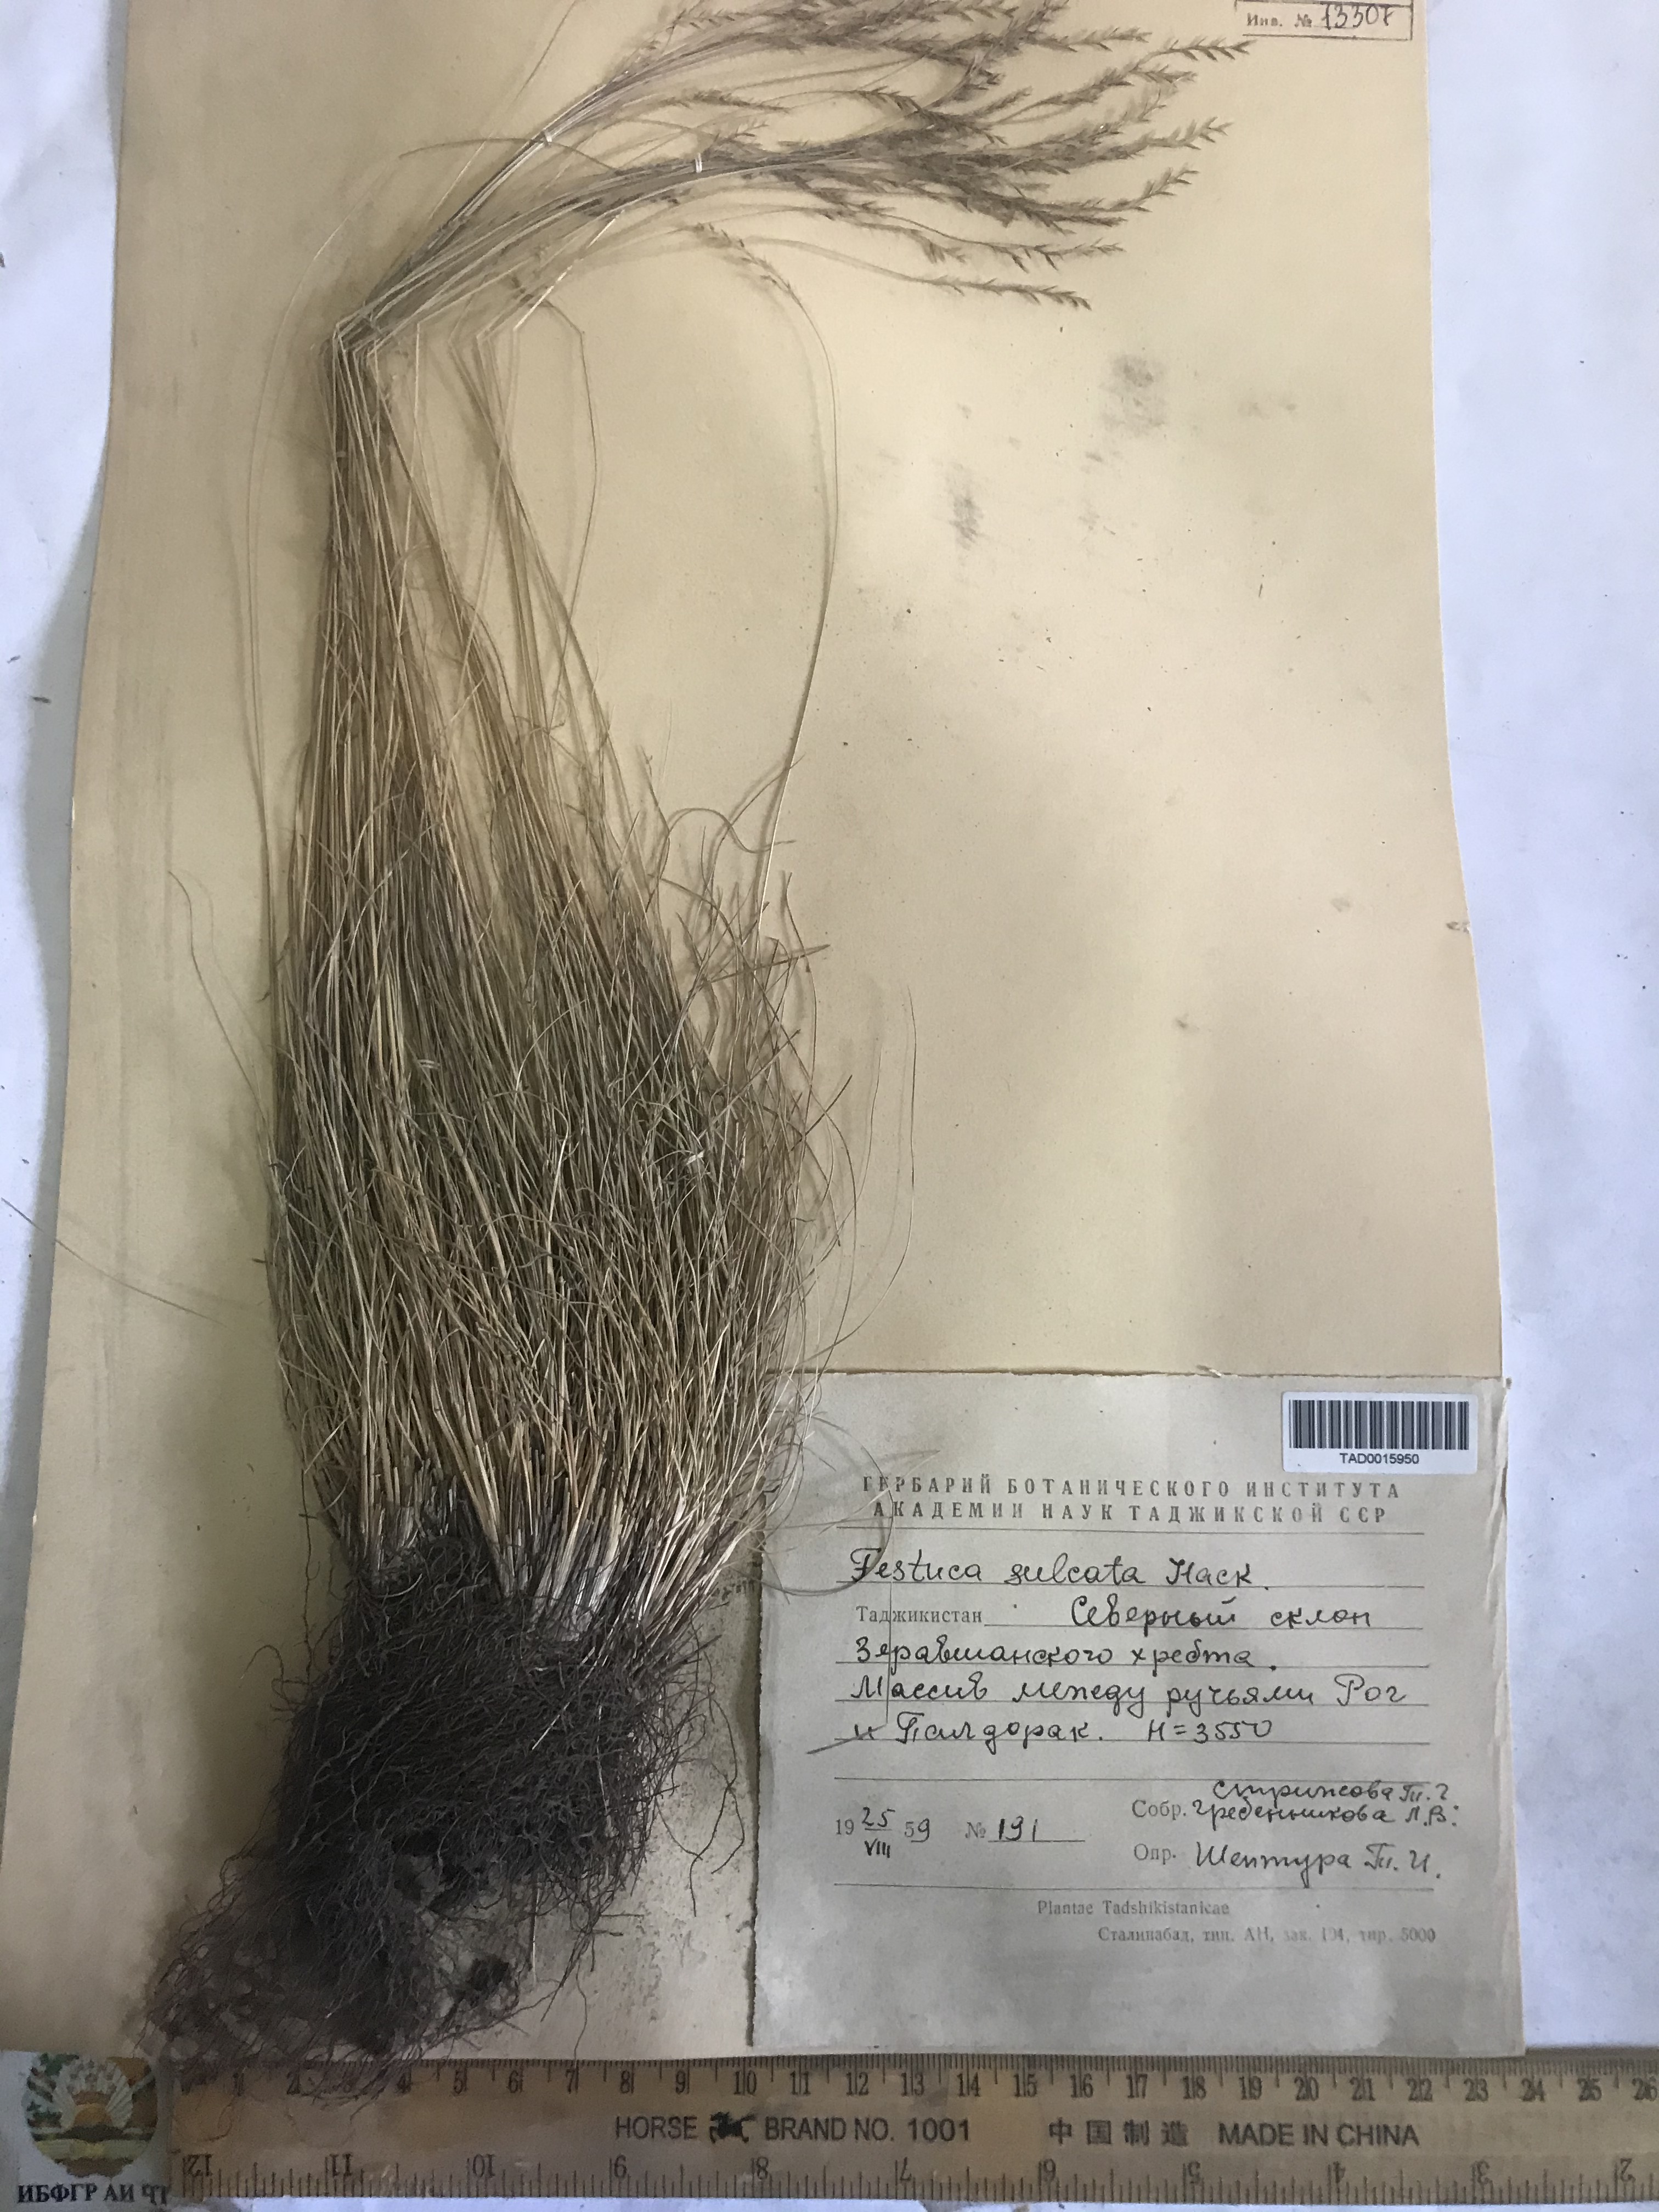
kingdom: Plantae
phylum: Tracheophyta
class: Liliopsida
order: Poales
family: Poaceae
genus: Festuca
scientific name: Festuca sulcata
